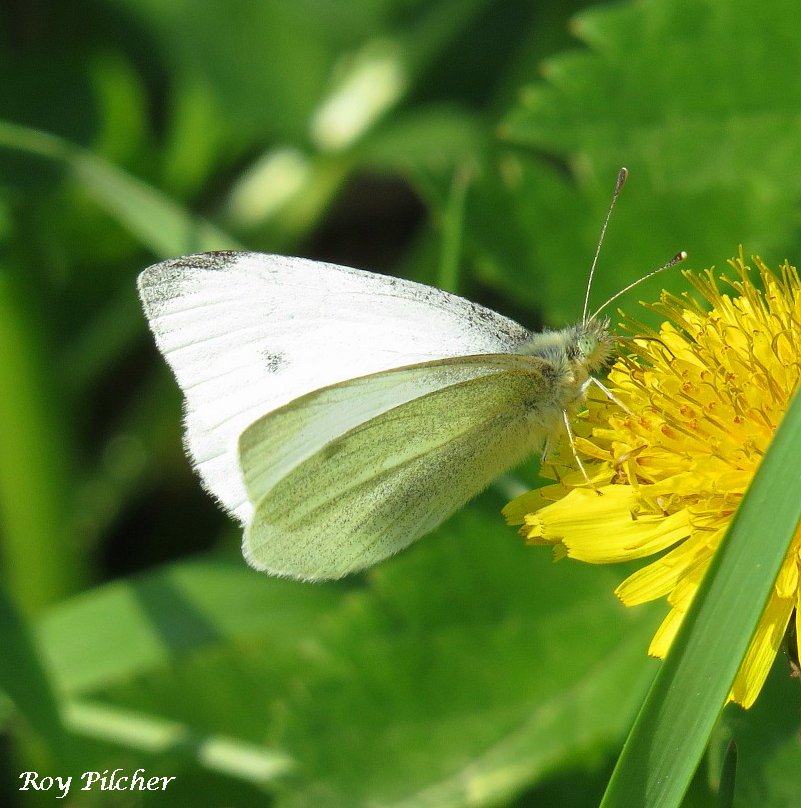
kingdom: Animalia
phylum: Arthropoda
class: Insecta
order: Lepidoptera
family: Pieridae
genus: Pieris
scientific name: Pieris rapae
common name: Cabbage White
